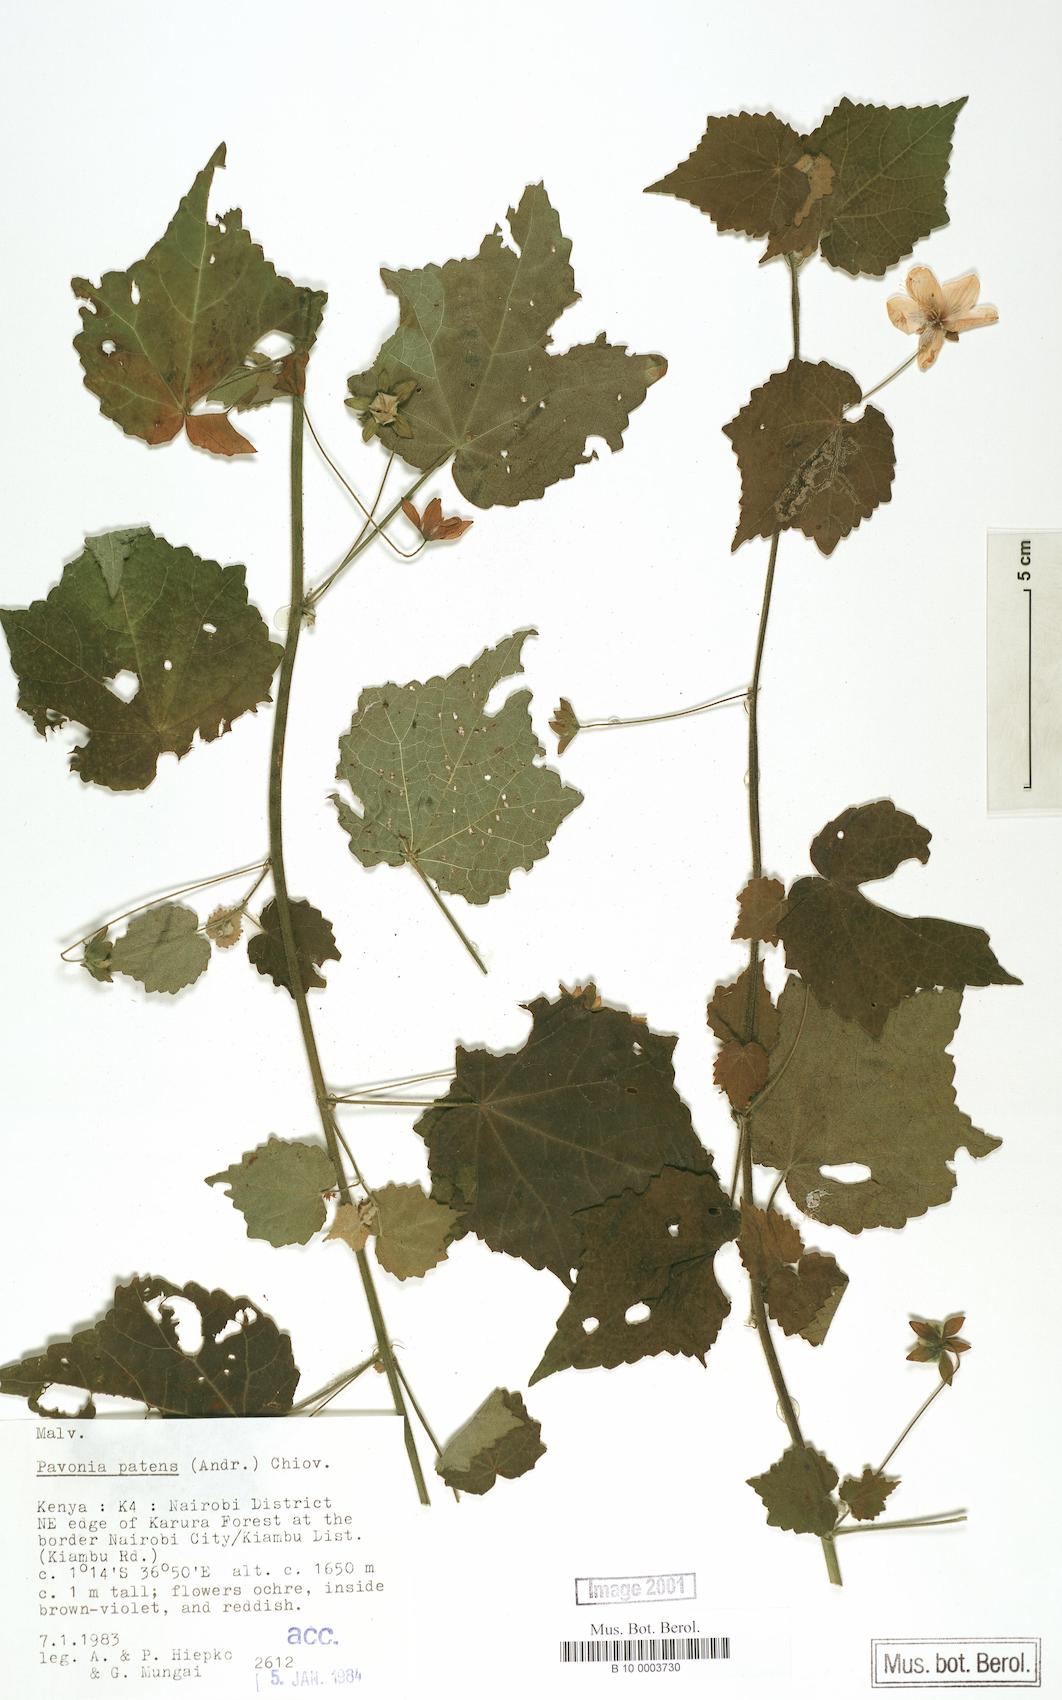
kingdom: Plantae
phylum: Tracheophyta
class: Magnoliopsida
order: Malvales
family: Malvaceae
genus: Abutilon
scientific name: Abutilon mauritianum
